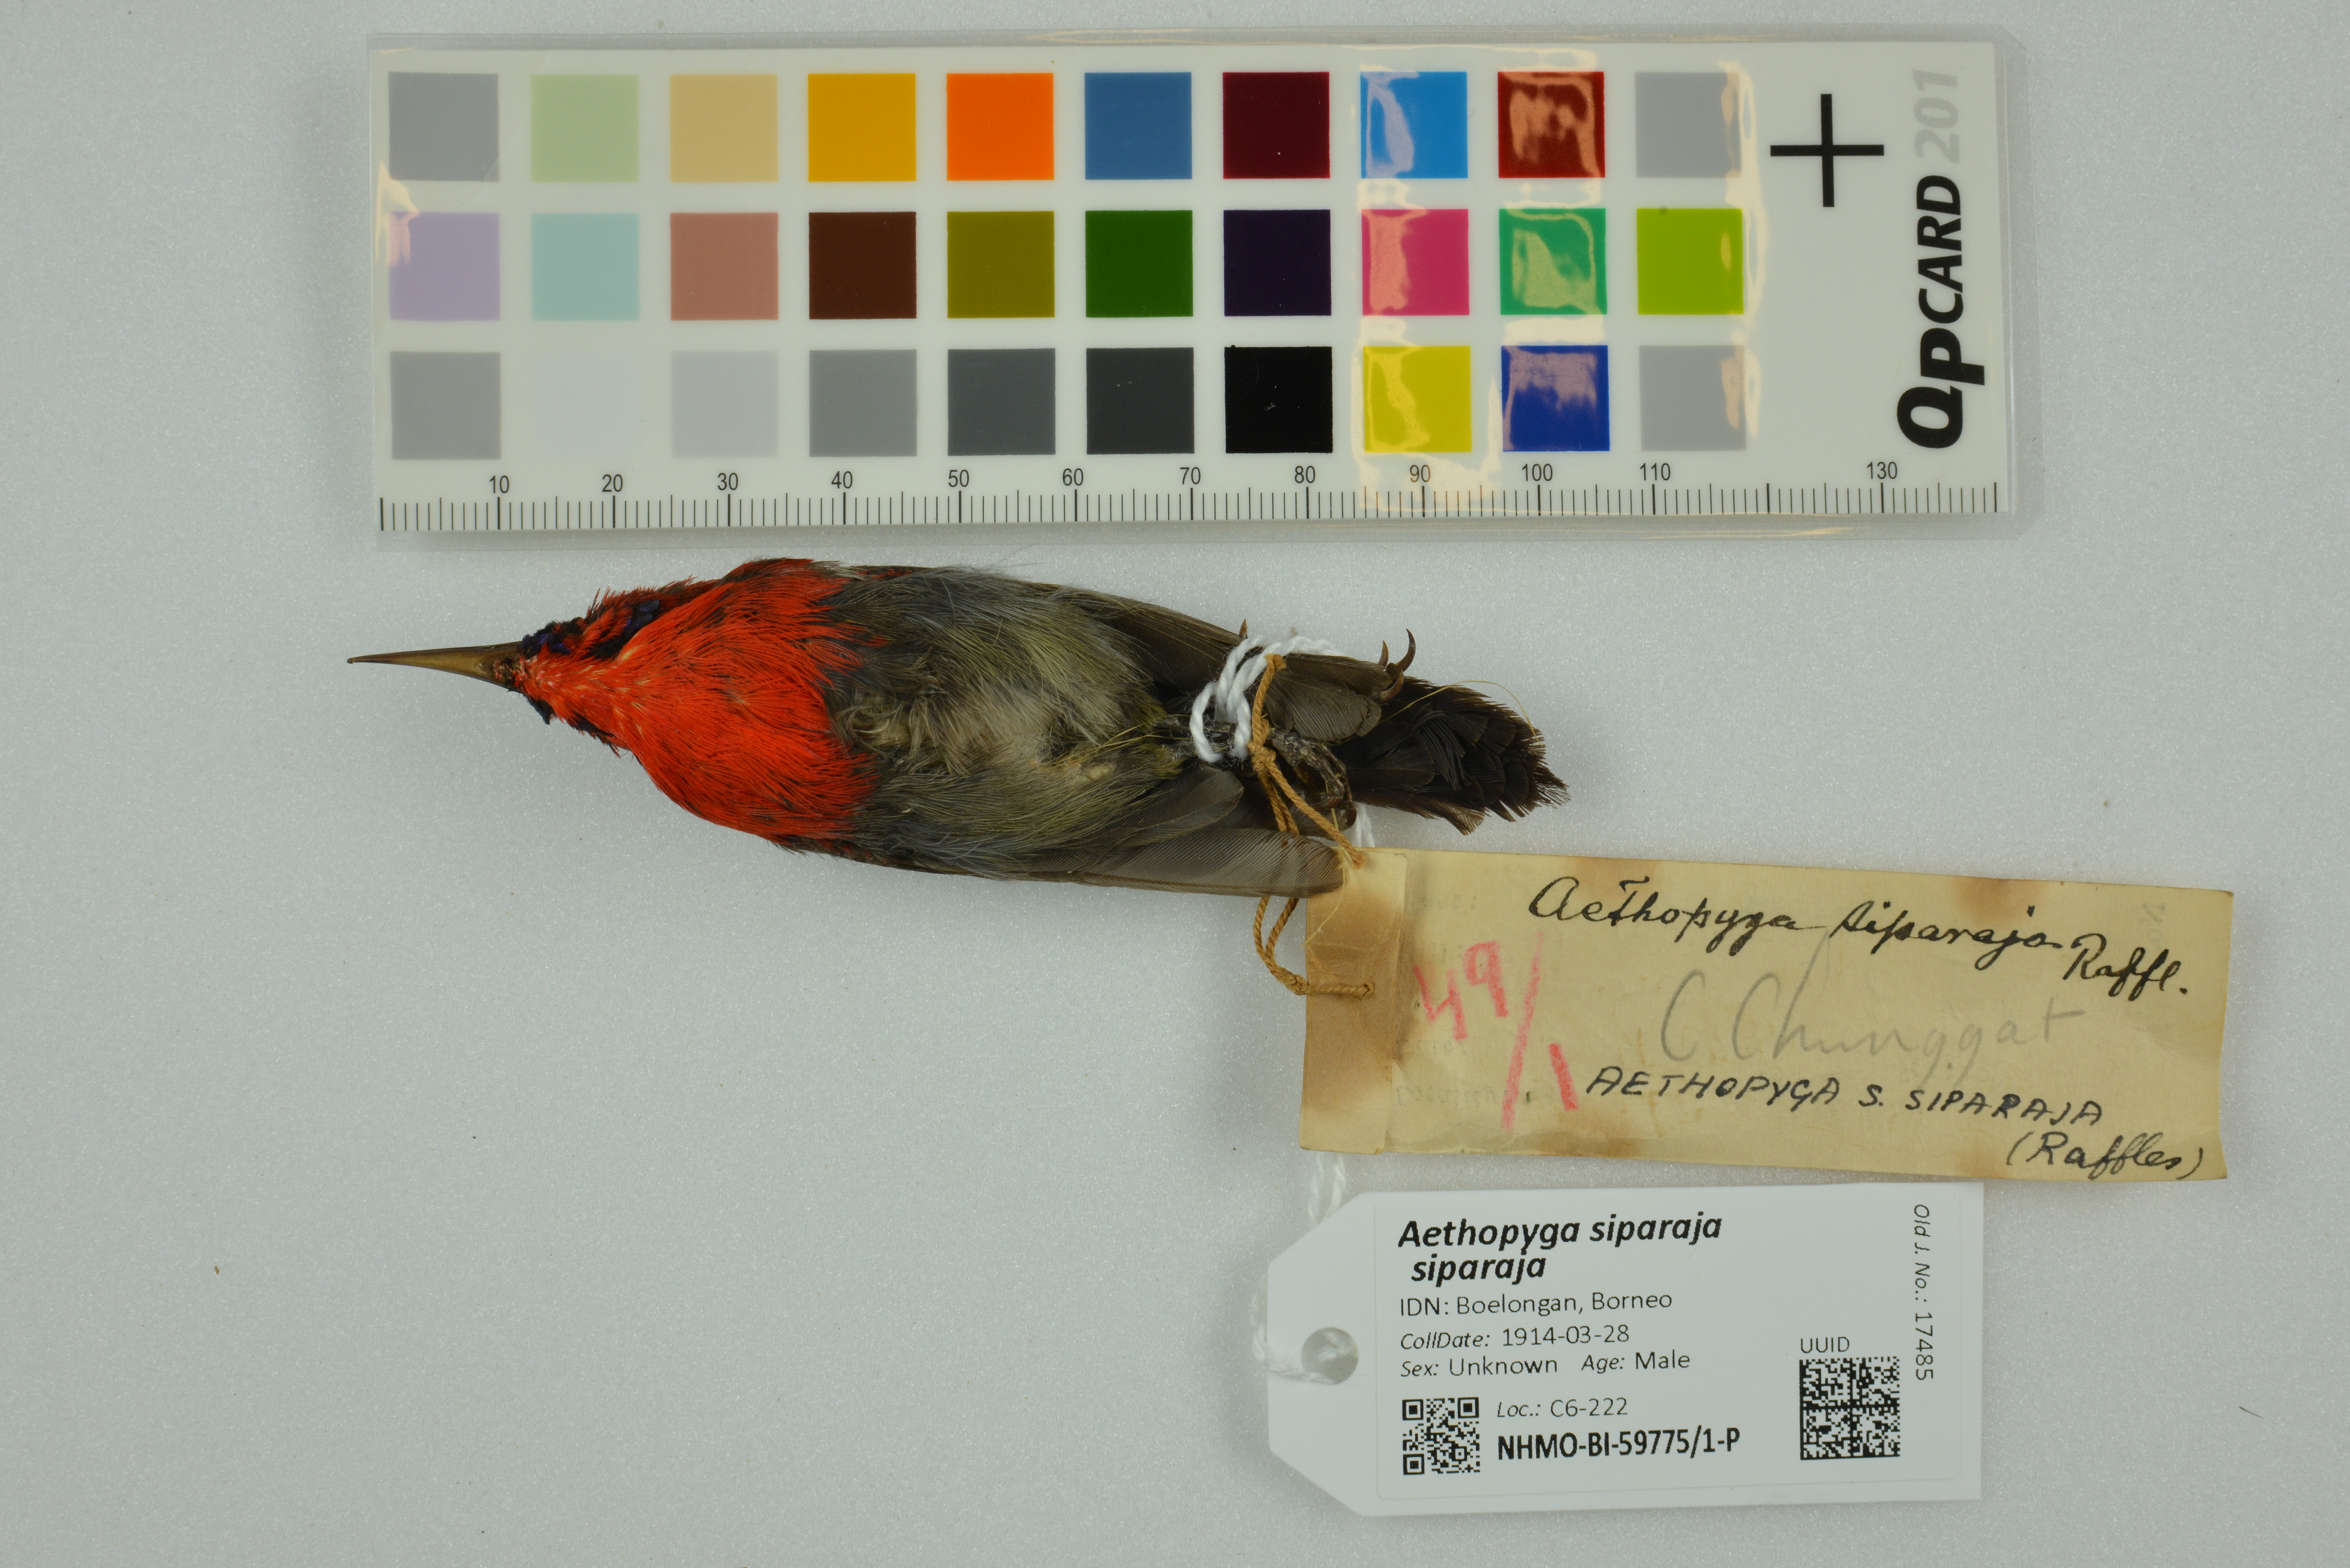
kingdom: Animalia
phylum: Chordata
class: Aves
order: Passeriformes
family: Nectariniidae
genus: Aethopyga
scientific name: Aethopyga siparaja
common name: Crimson sunbird
